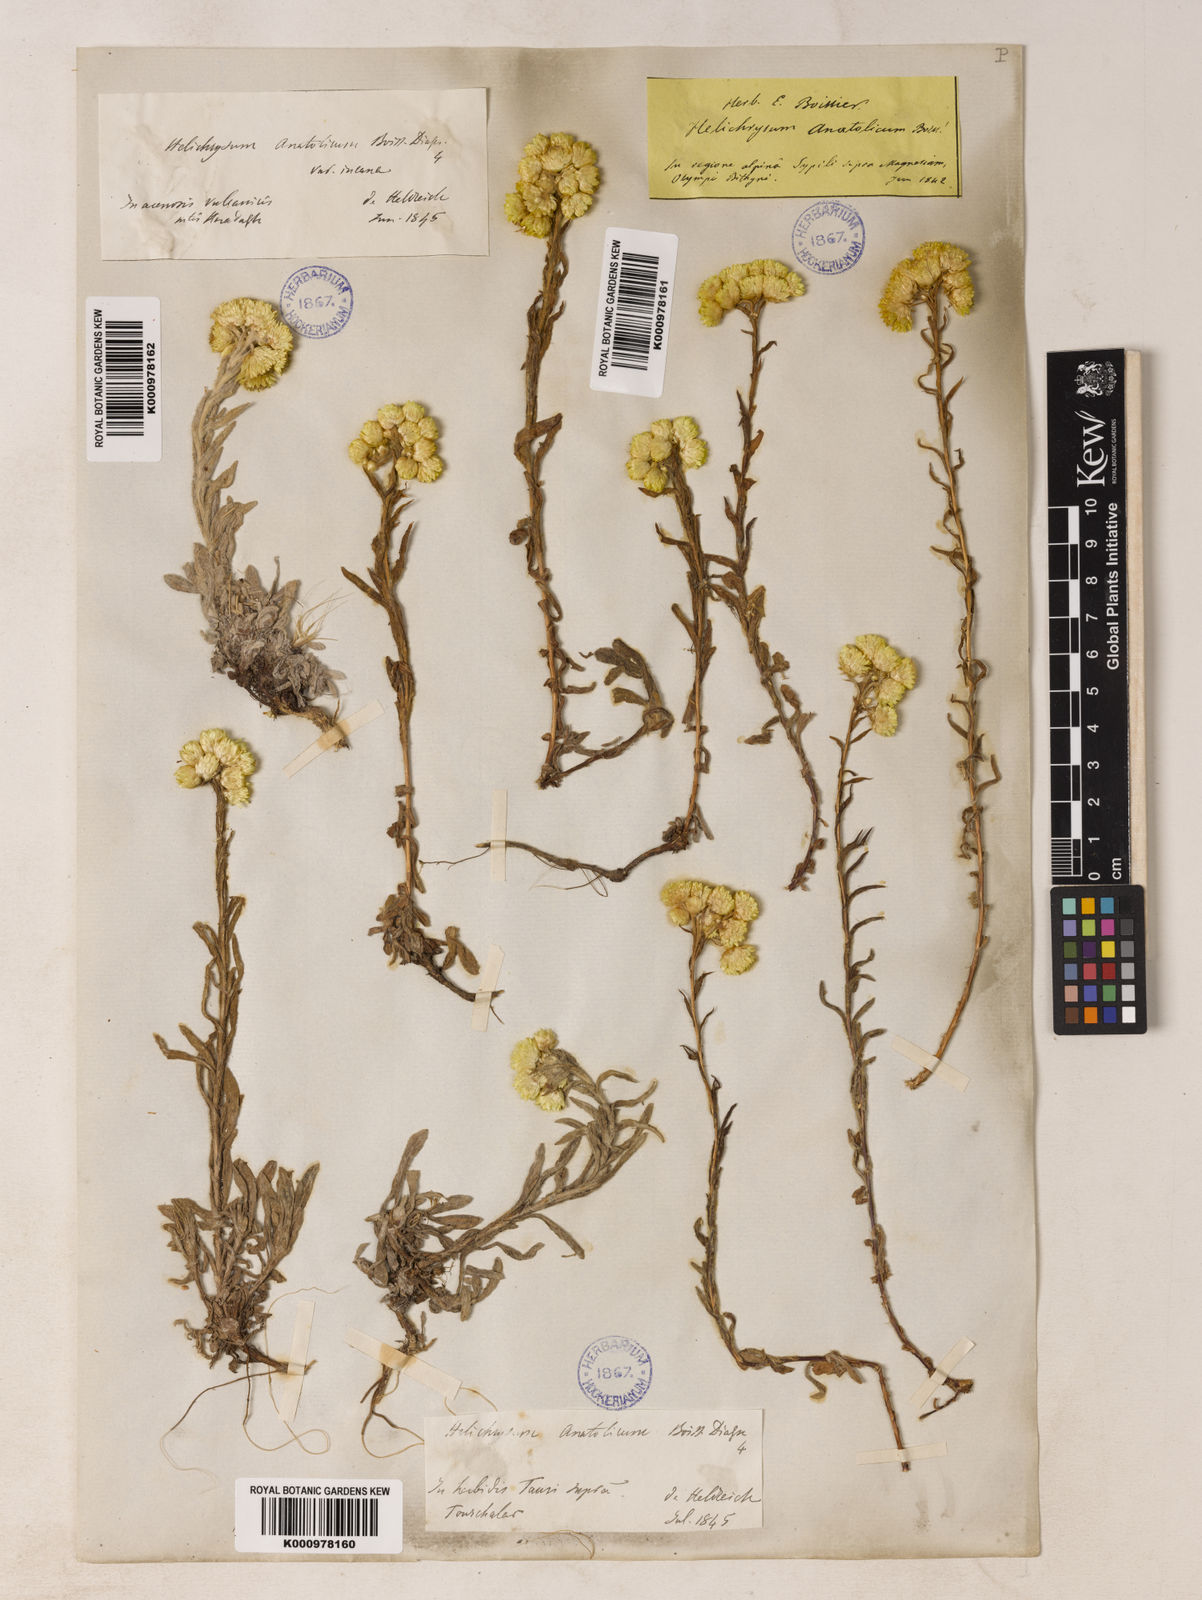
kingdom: Plantae
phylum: Tracheophyta
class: Magnoliopsida
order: Asterales
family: Asteraceae
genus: Helichrysum
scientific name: Helichrysum plicatum
